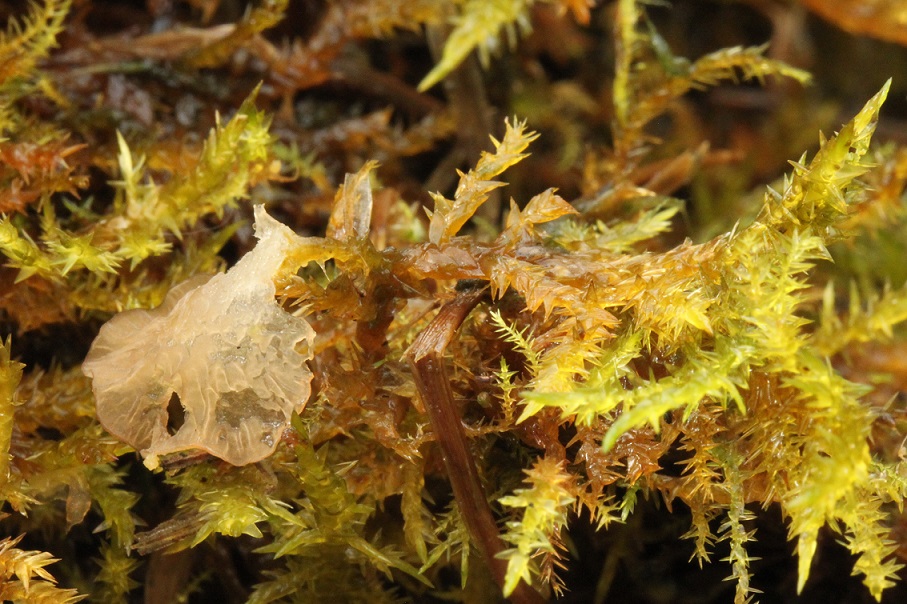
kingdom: Fungi
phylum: Basidiomycota
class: Agaricomycetes
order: Agaricales
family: Hygrophoraceae
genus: Arrhenia
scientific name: Arrhenia lobata
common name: siddende fontænehat
